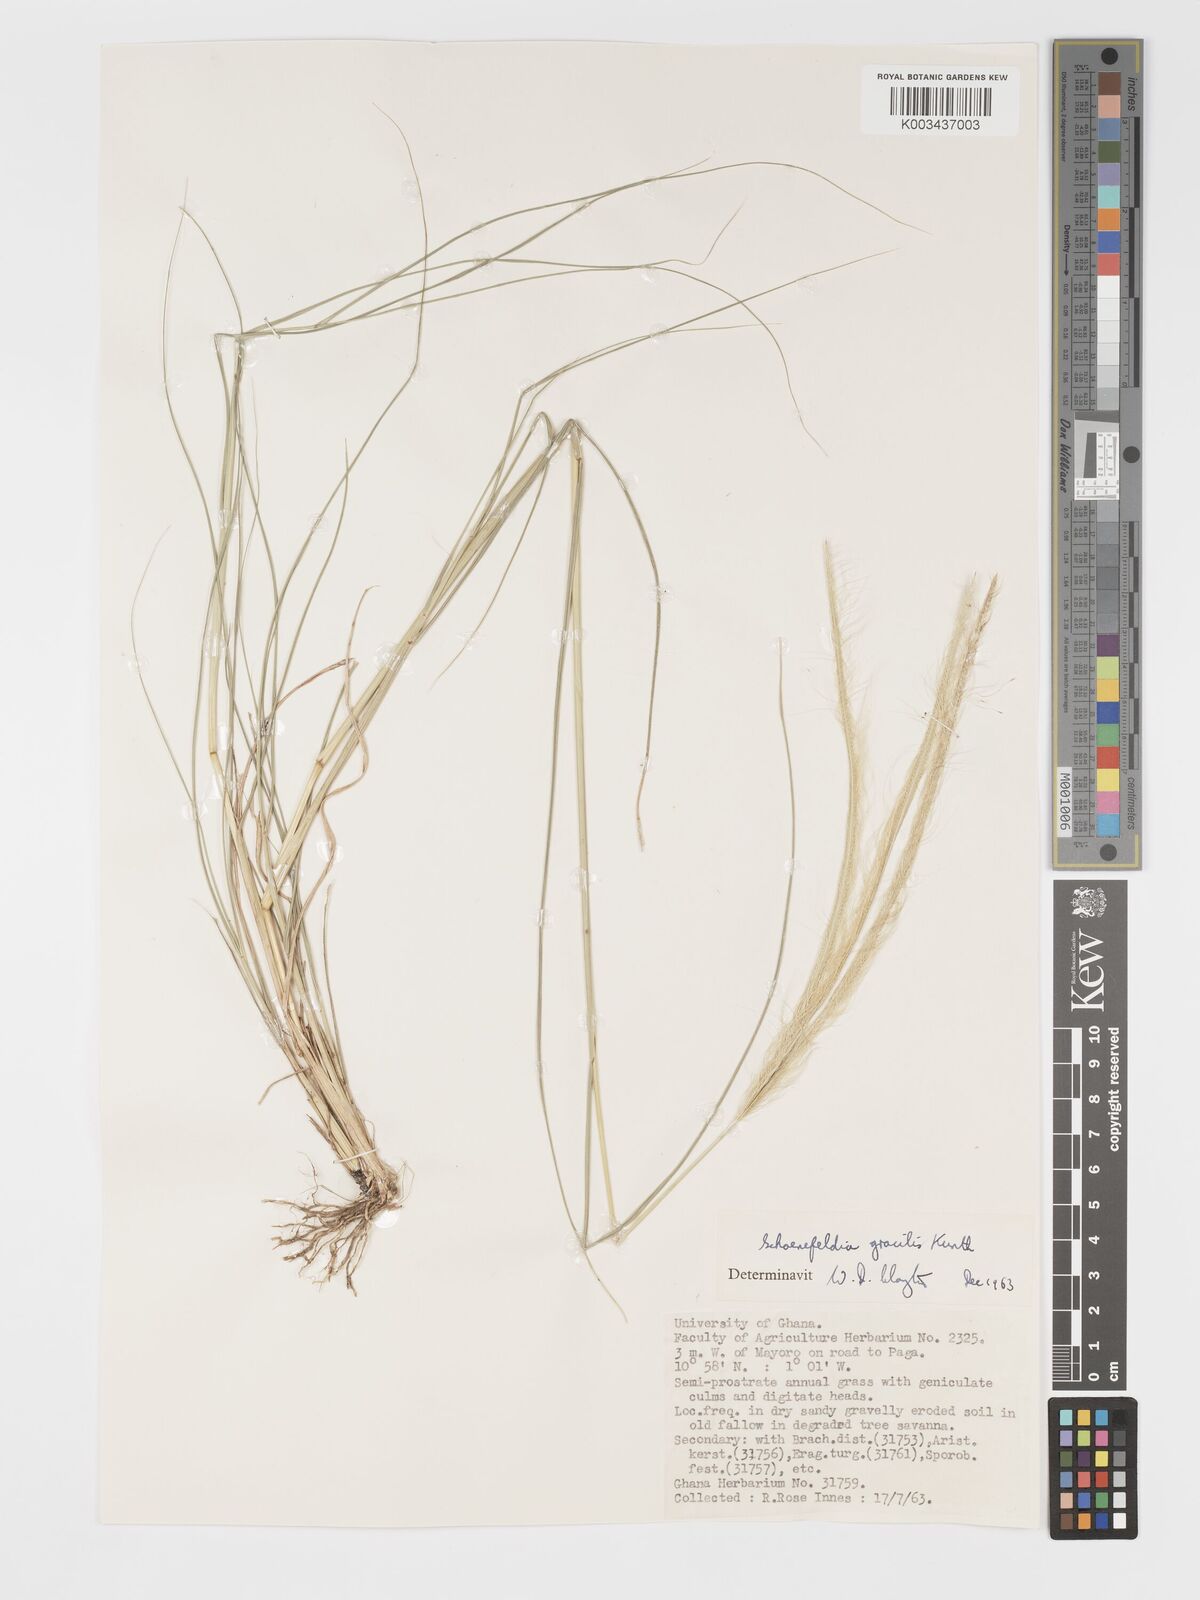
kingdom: Plantae
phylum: Tracheophyta
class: Liliopsida
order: Poales
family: Poaceae
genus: Schoenefeldia
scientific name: Schoenefeldia gracilis
